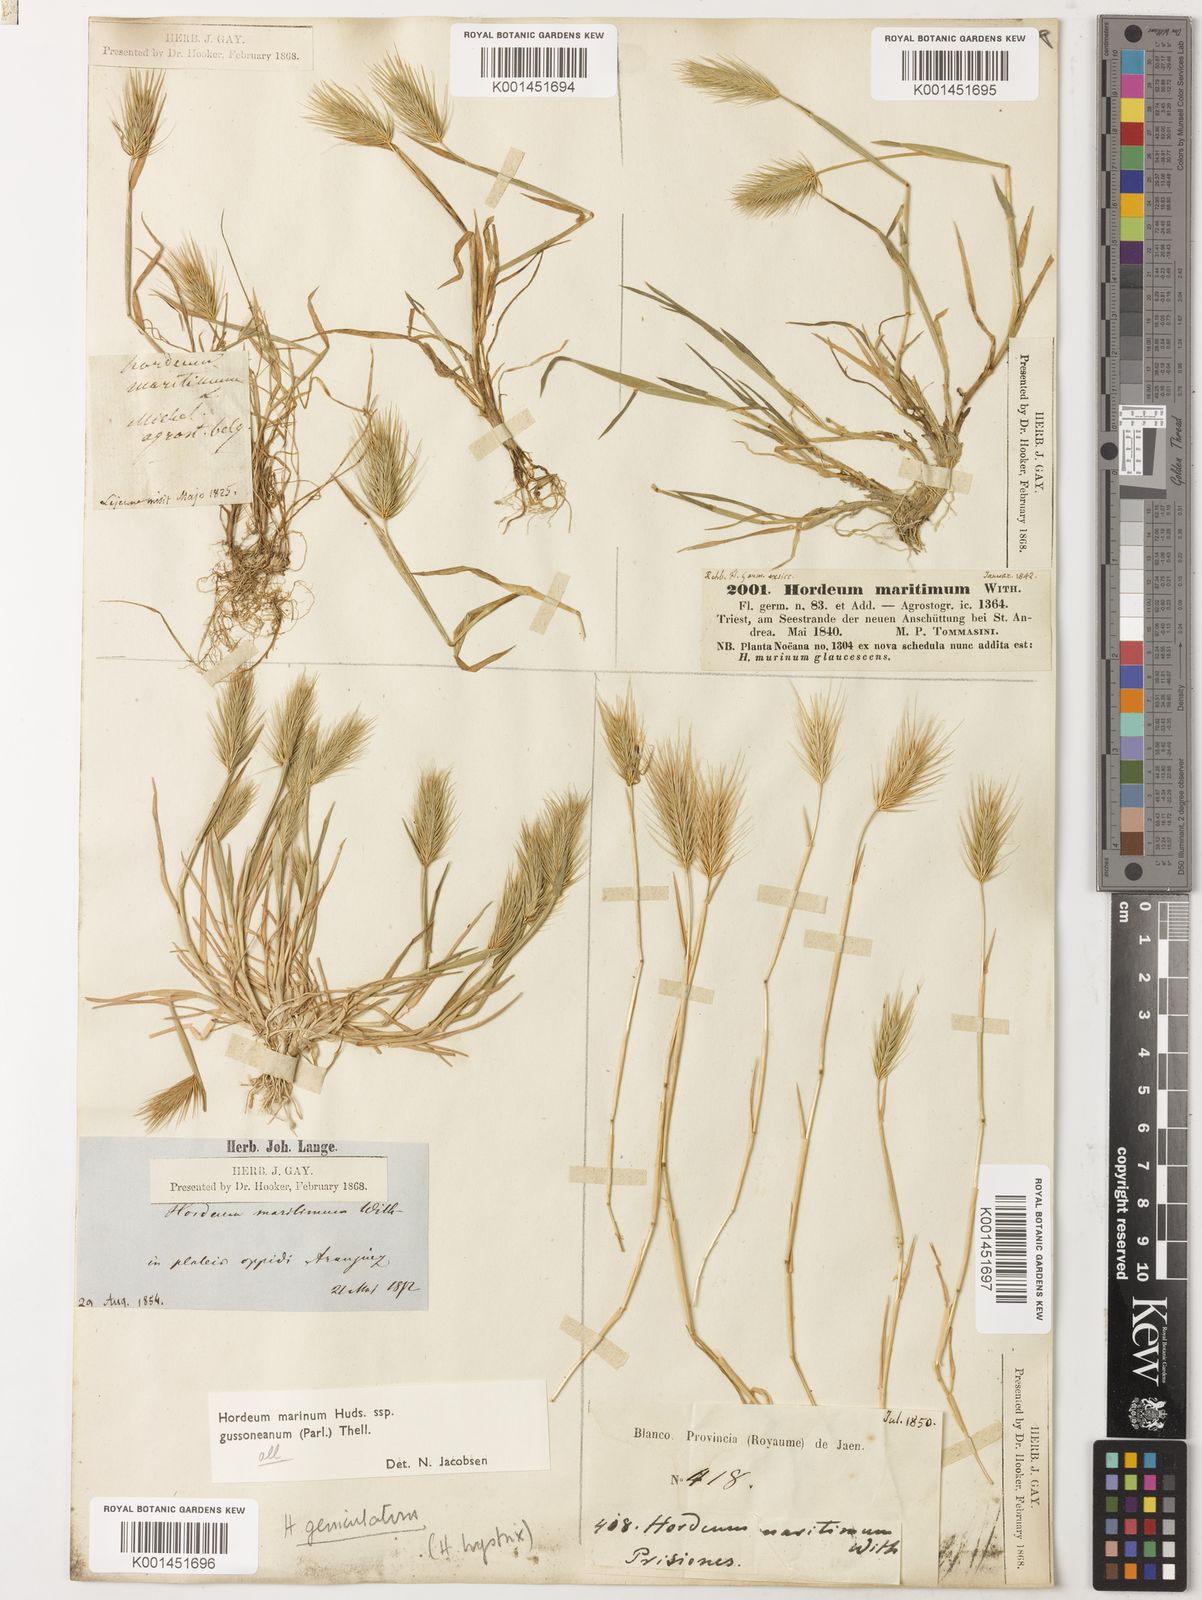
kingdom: Plantae
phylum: Tracheophyta
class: Liliopsida
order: Poales
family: Poaceae
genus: Hordeum
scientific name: Hordeum marinum
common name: Sea barley
